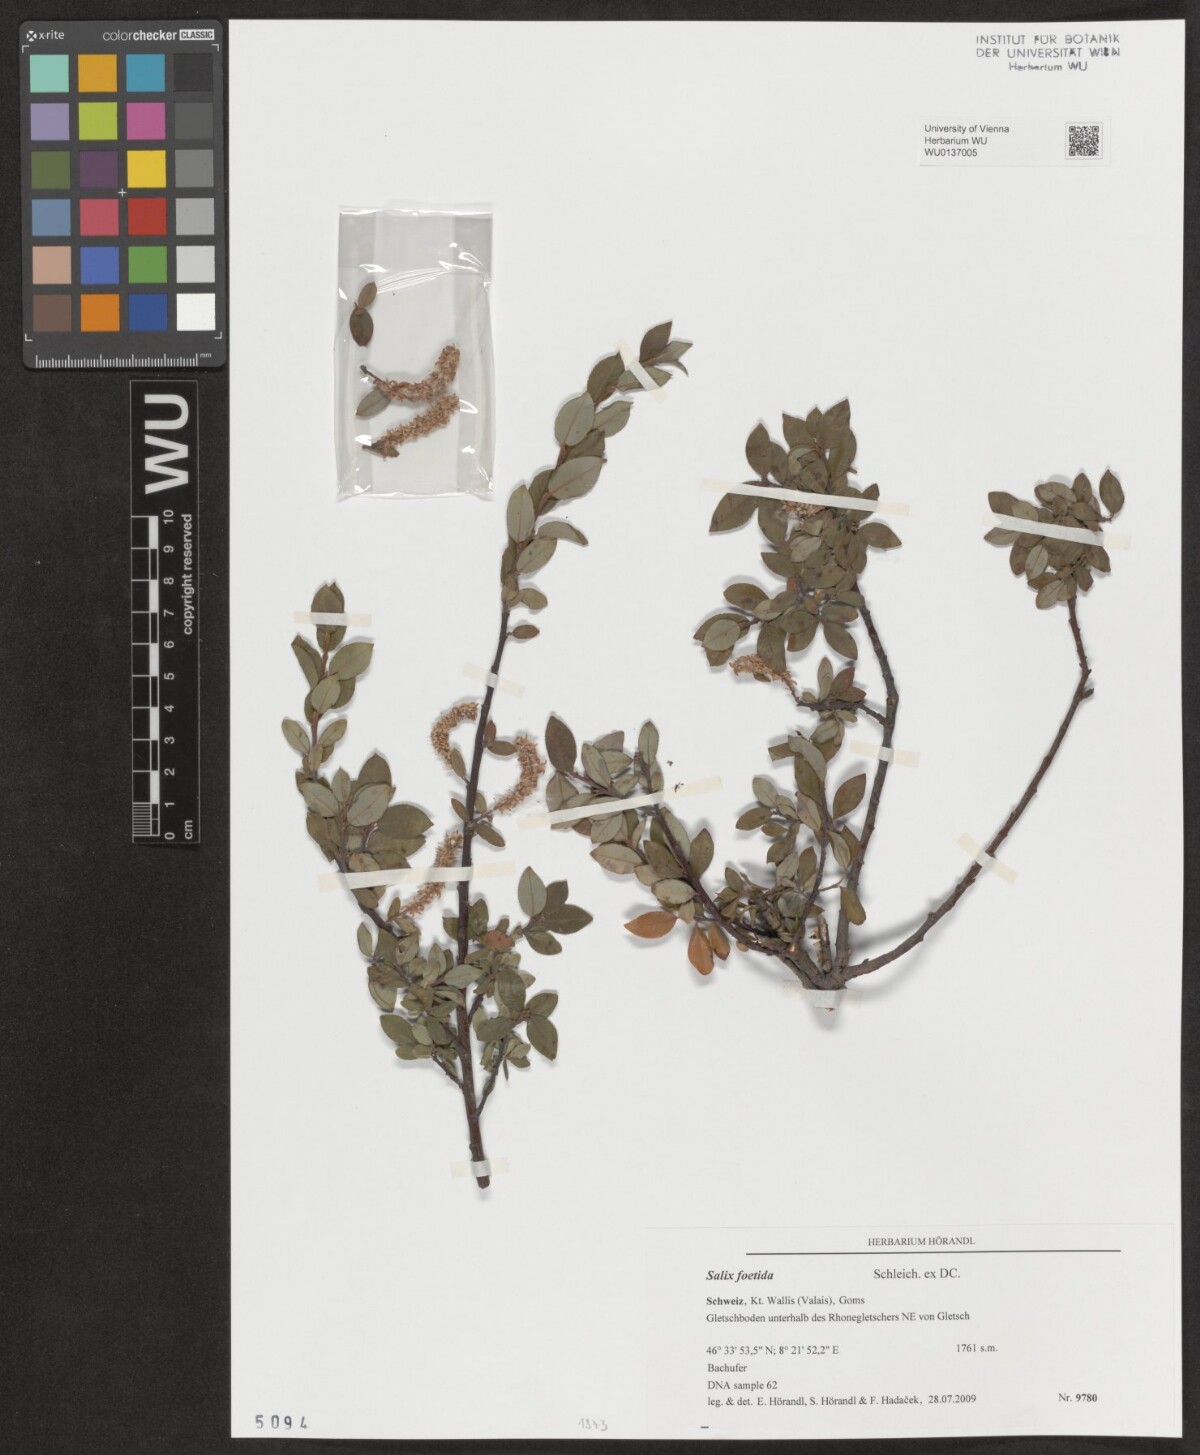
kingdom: Plantae
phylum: Tracheophyta
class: Magnoliopsida
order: Malpighiales
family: Salicaceae
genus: Salix
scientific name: Salix foetida
